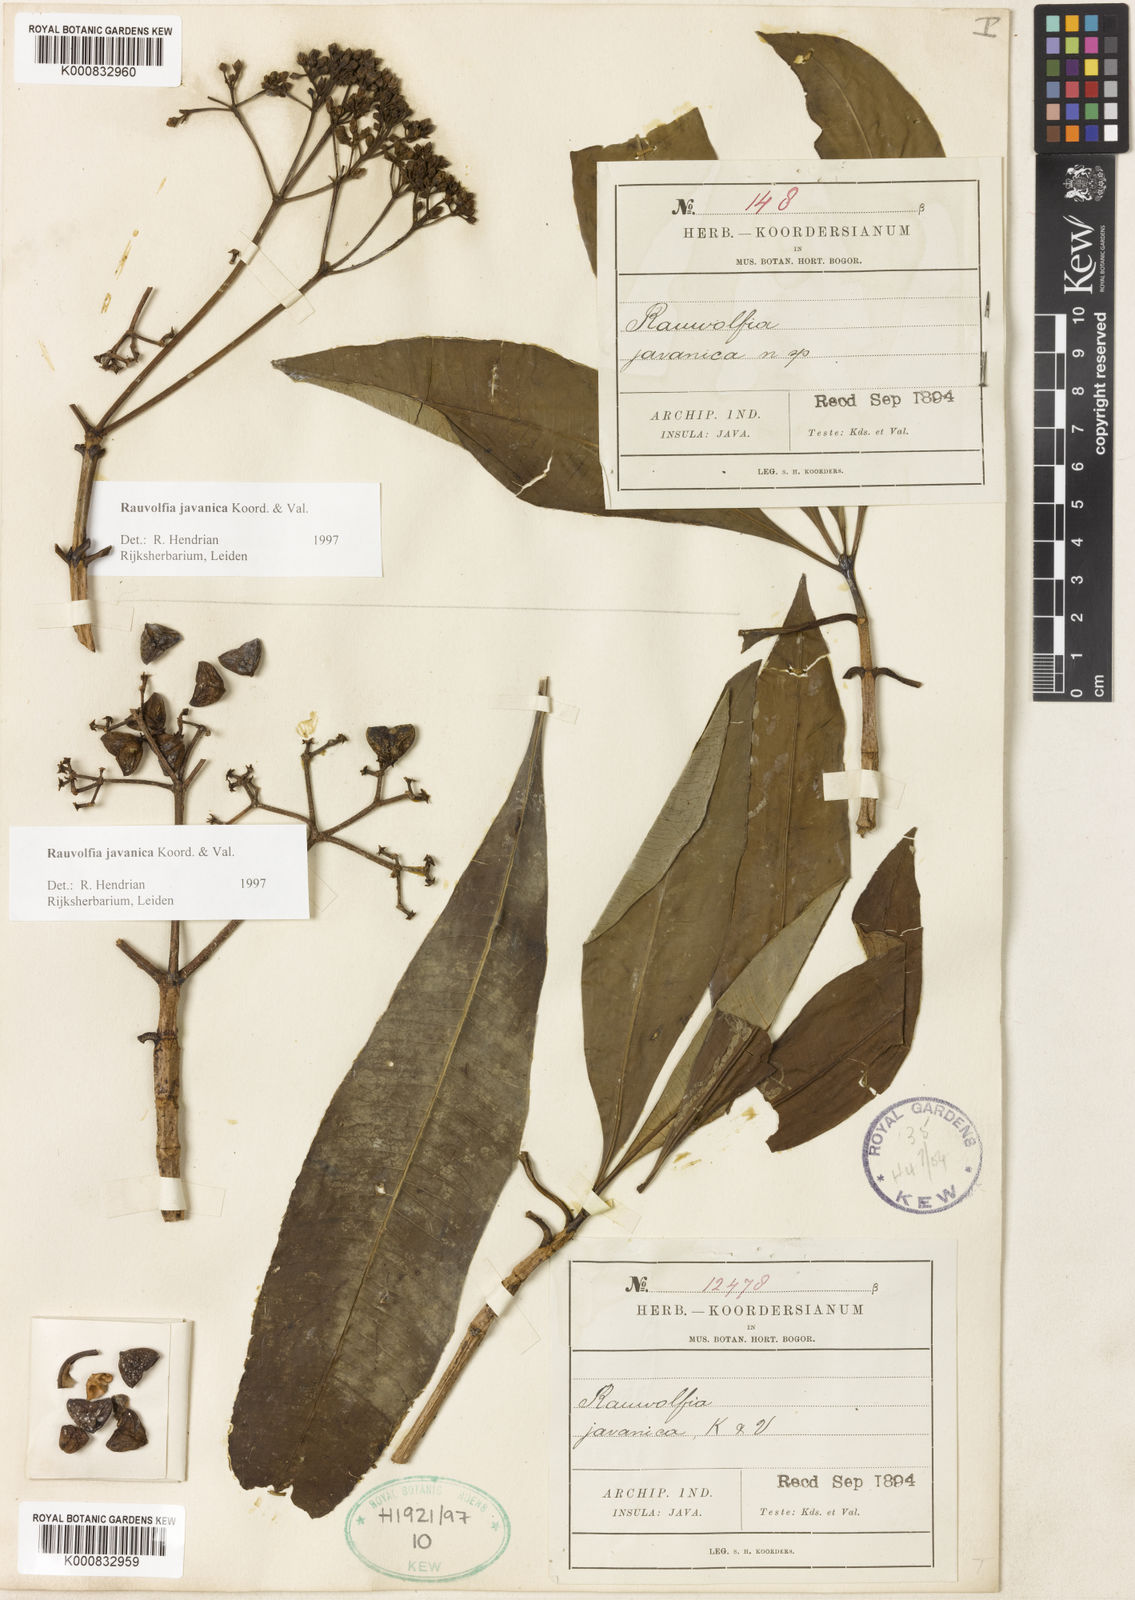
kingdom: Plantae
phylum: Tracheophyta
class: Magnoliopsida
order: Gentianales
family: Apocynaceae
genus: Rauvolfia
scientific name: Rauvolfia javanica
